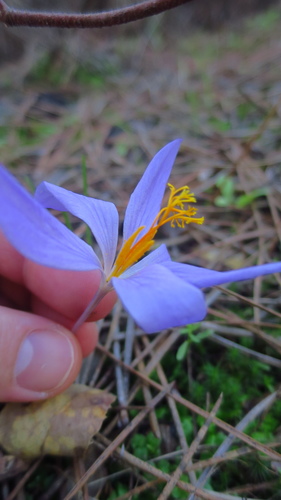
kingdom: Plantae
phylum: Tracheophyta
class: Liliopsida
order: Asparagales
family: Iridaceae
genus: Crocus
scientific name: Crocus serotinus
